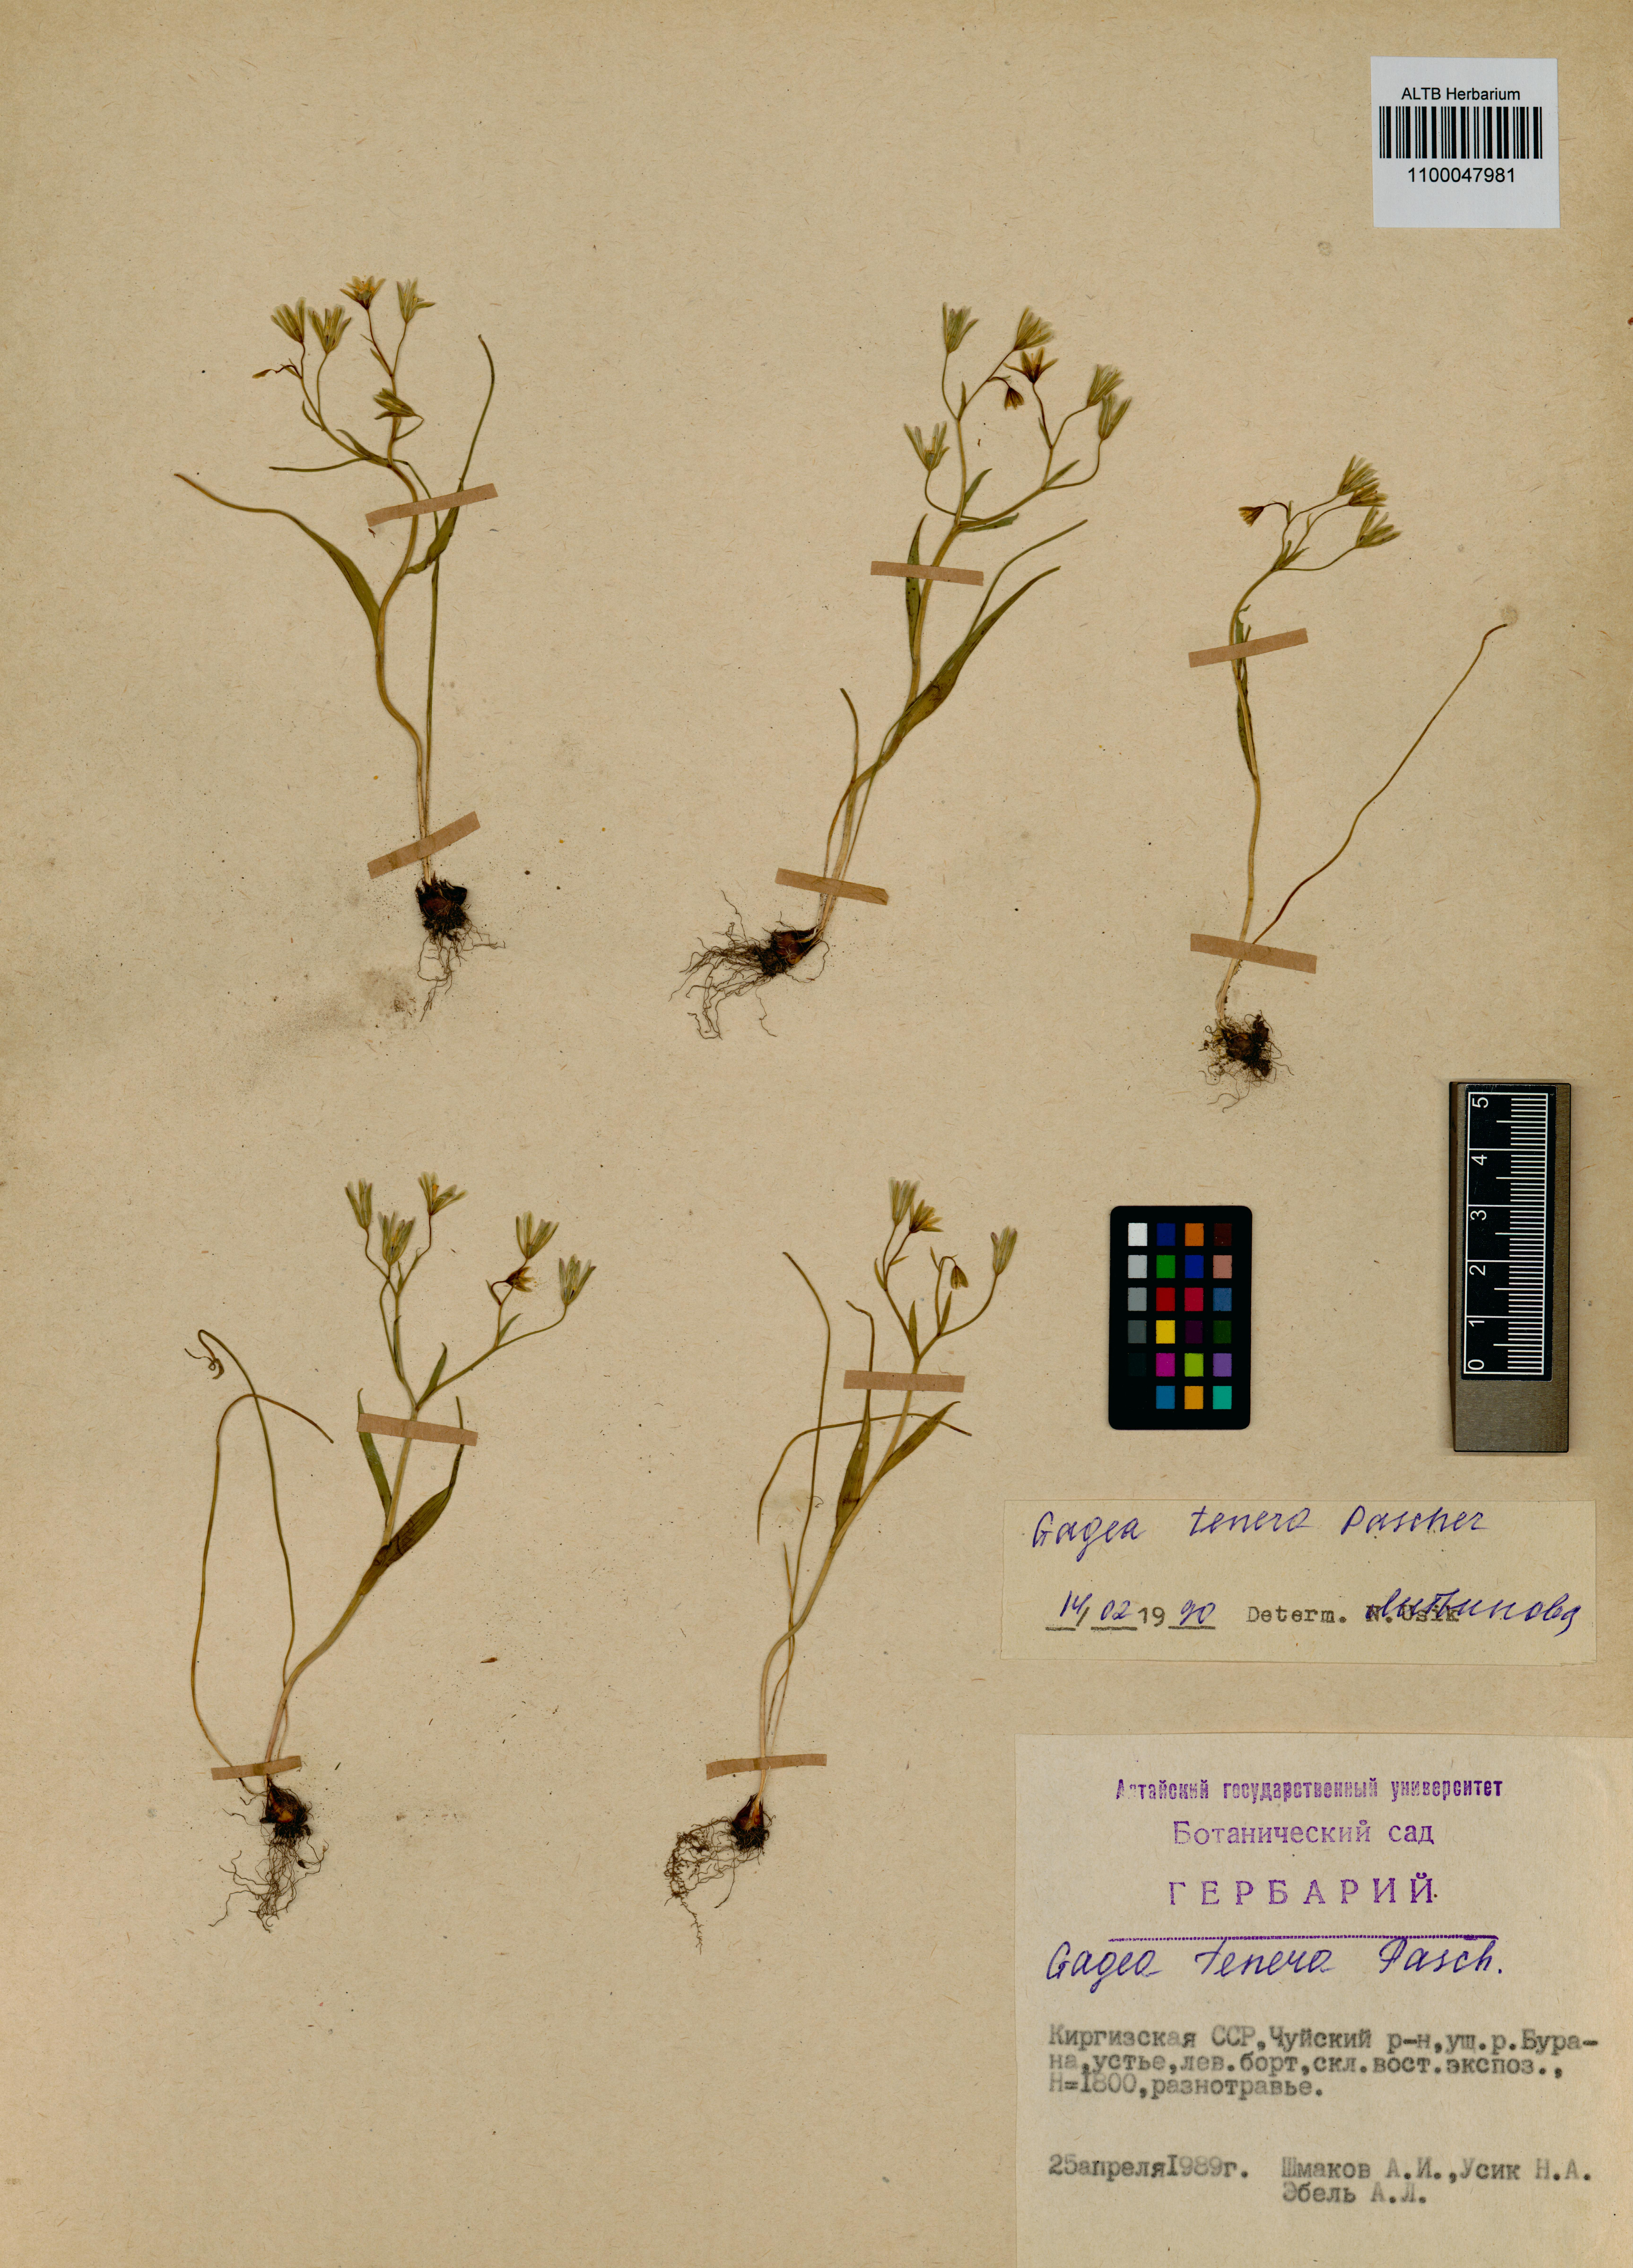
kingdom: Plantae
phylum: Tracheophyta
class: Liliopsida
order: Liliales
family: Liliaceae
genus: Gagea
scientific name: Gagea tenera
